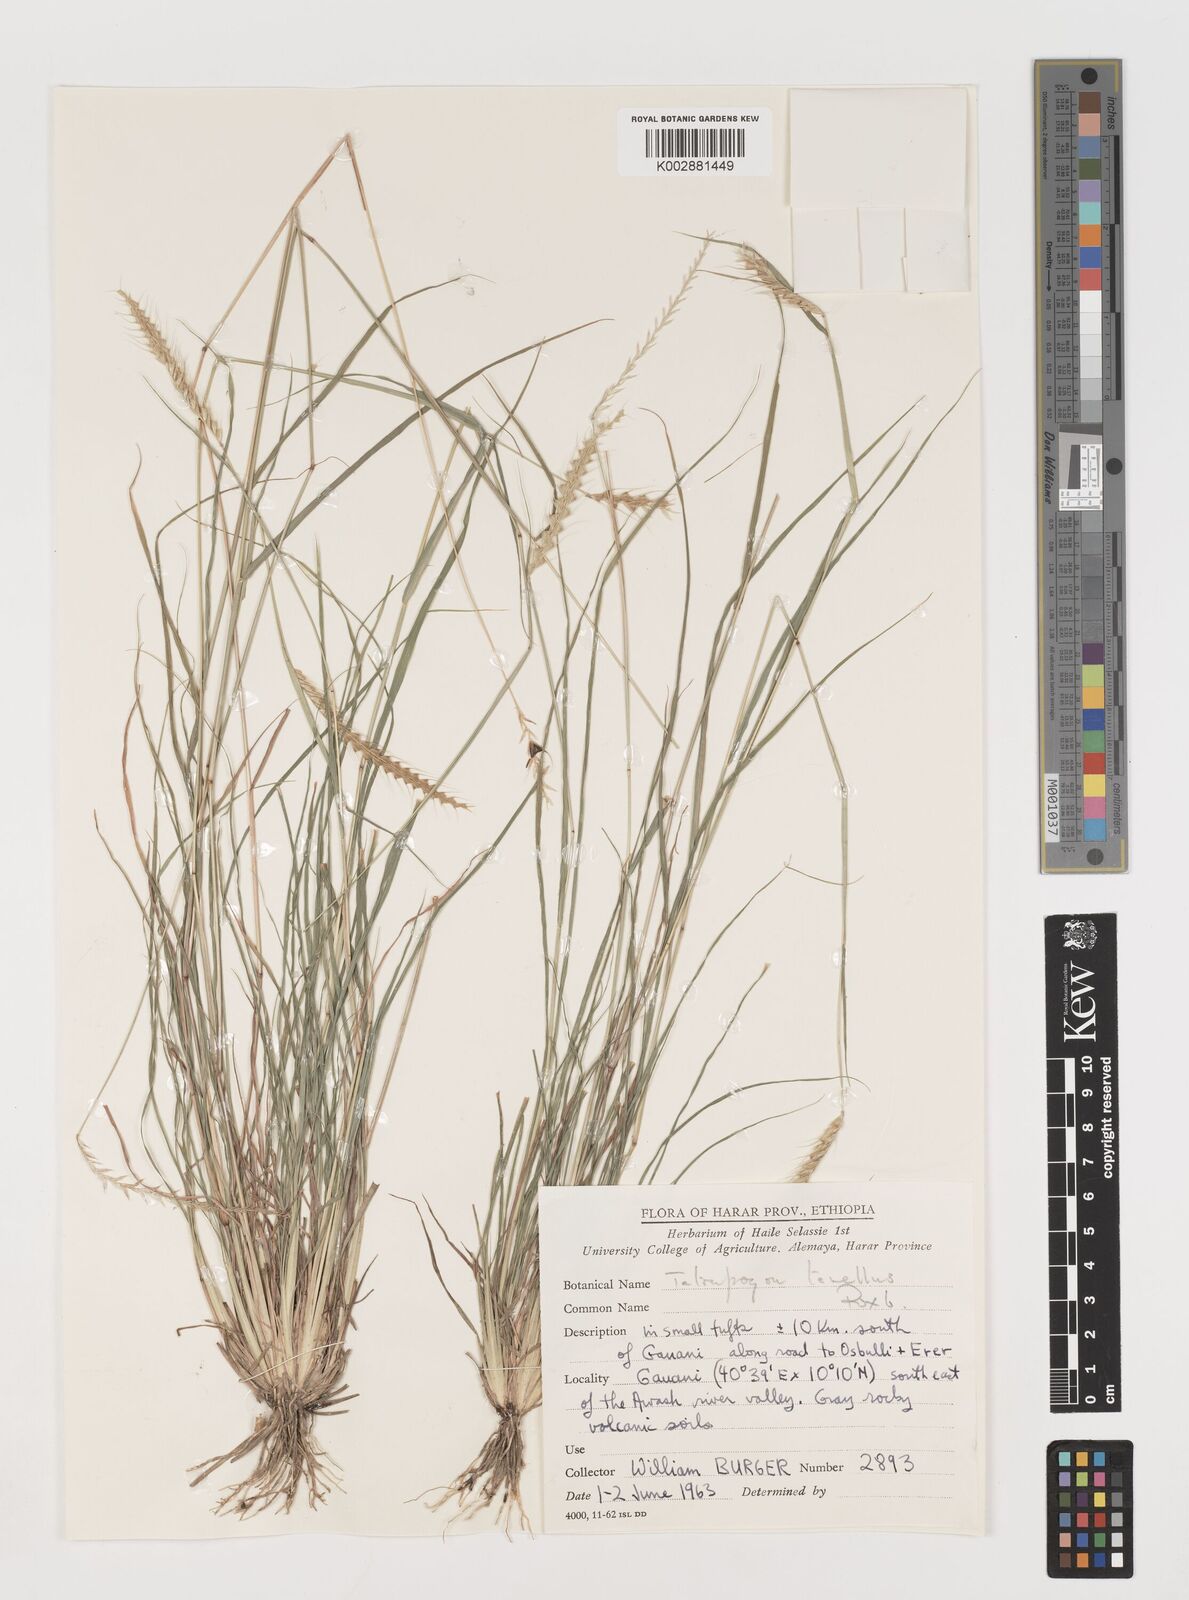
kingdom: Plantae
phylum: Tracheophyta
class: Liliopsida
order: Poales
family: Poaceae
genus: Tetrapogon
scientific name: Tetrapogon tenellus
